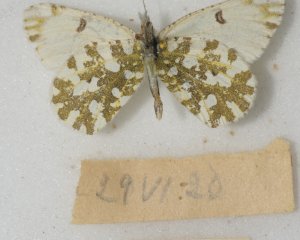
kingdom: Animalia
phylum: Arthropoda
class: Insecta
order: Lepidoptera
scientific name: Lepidoptera
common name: Butterflies
